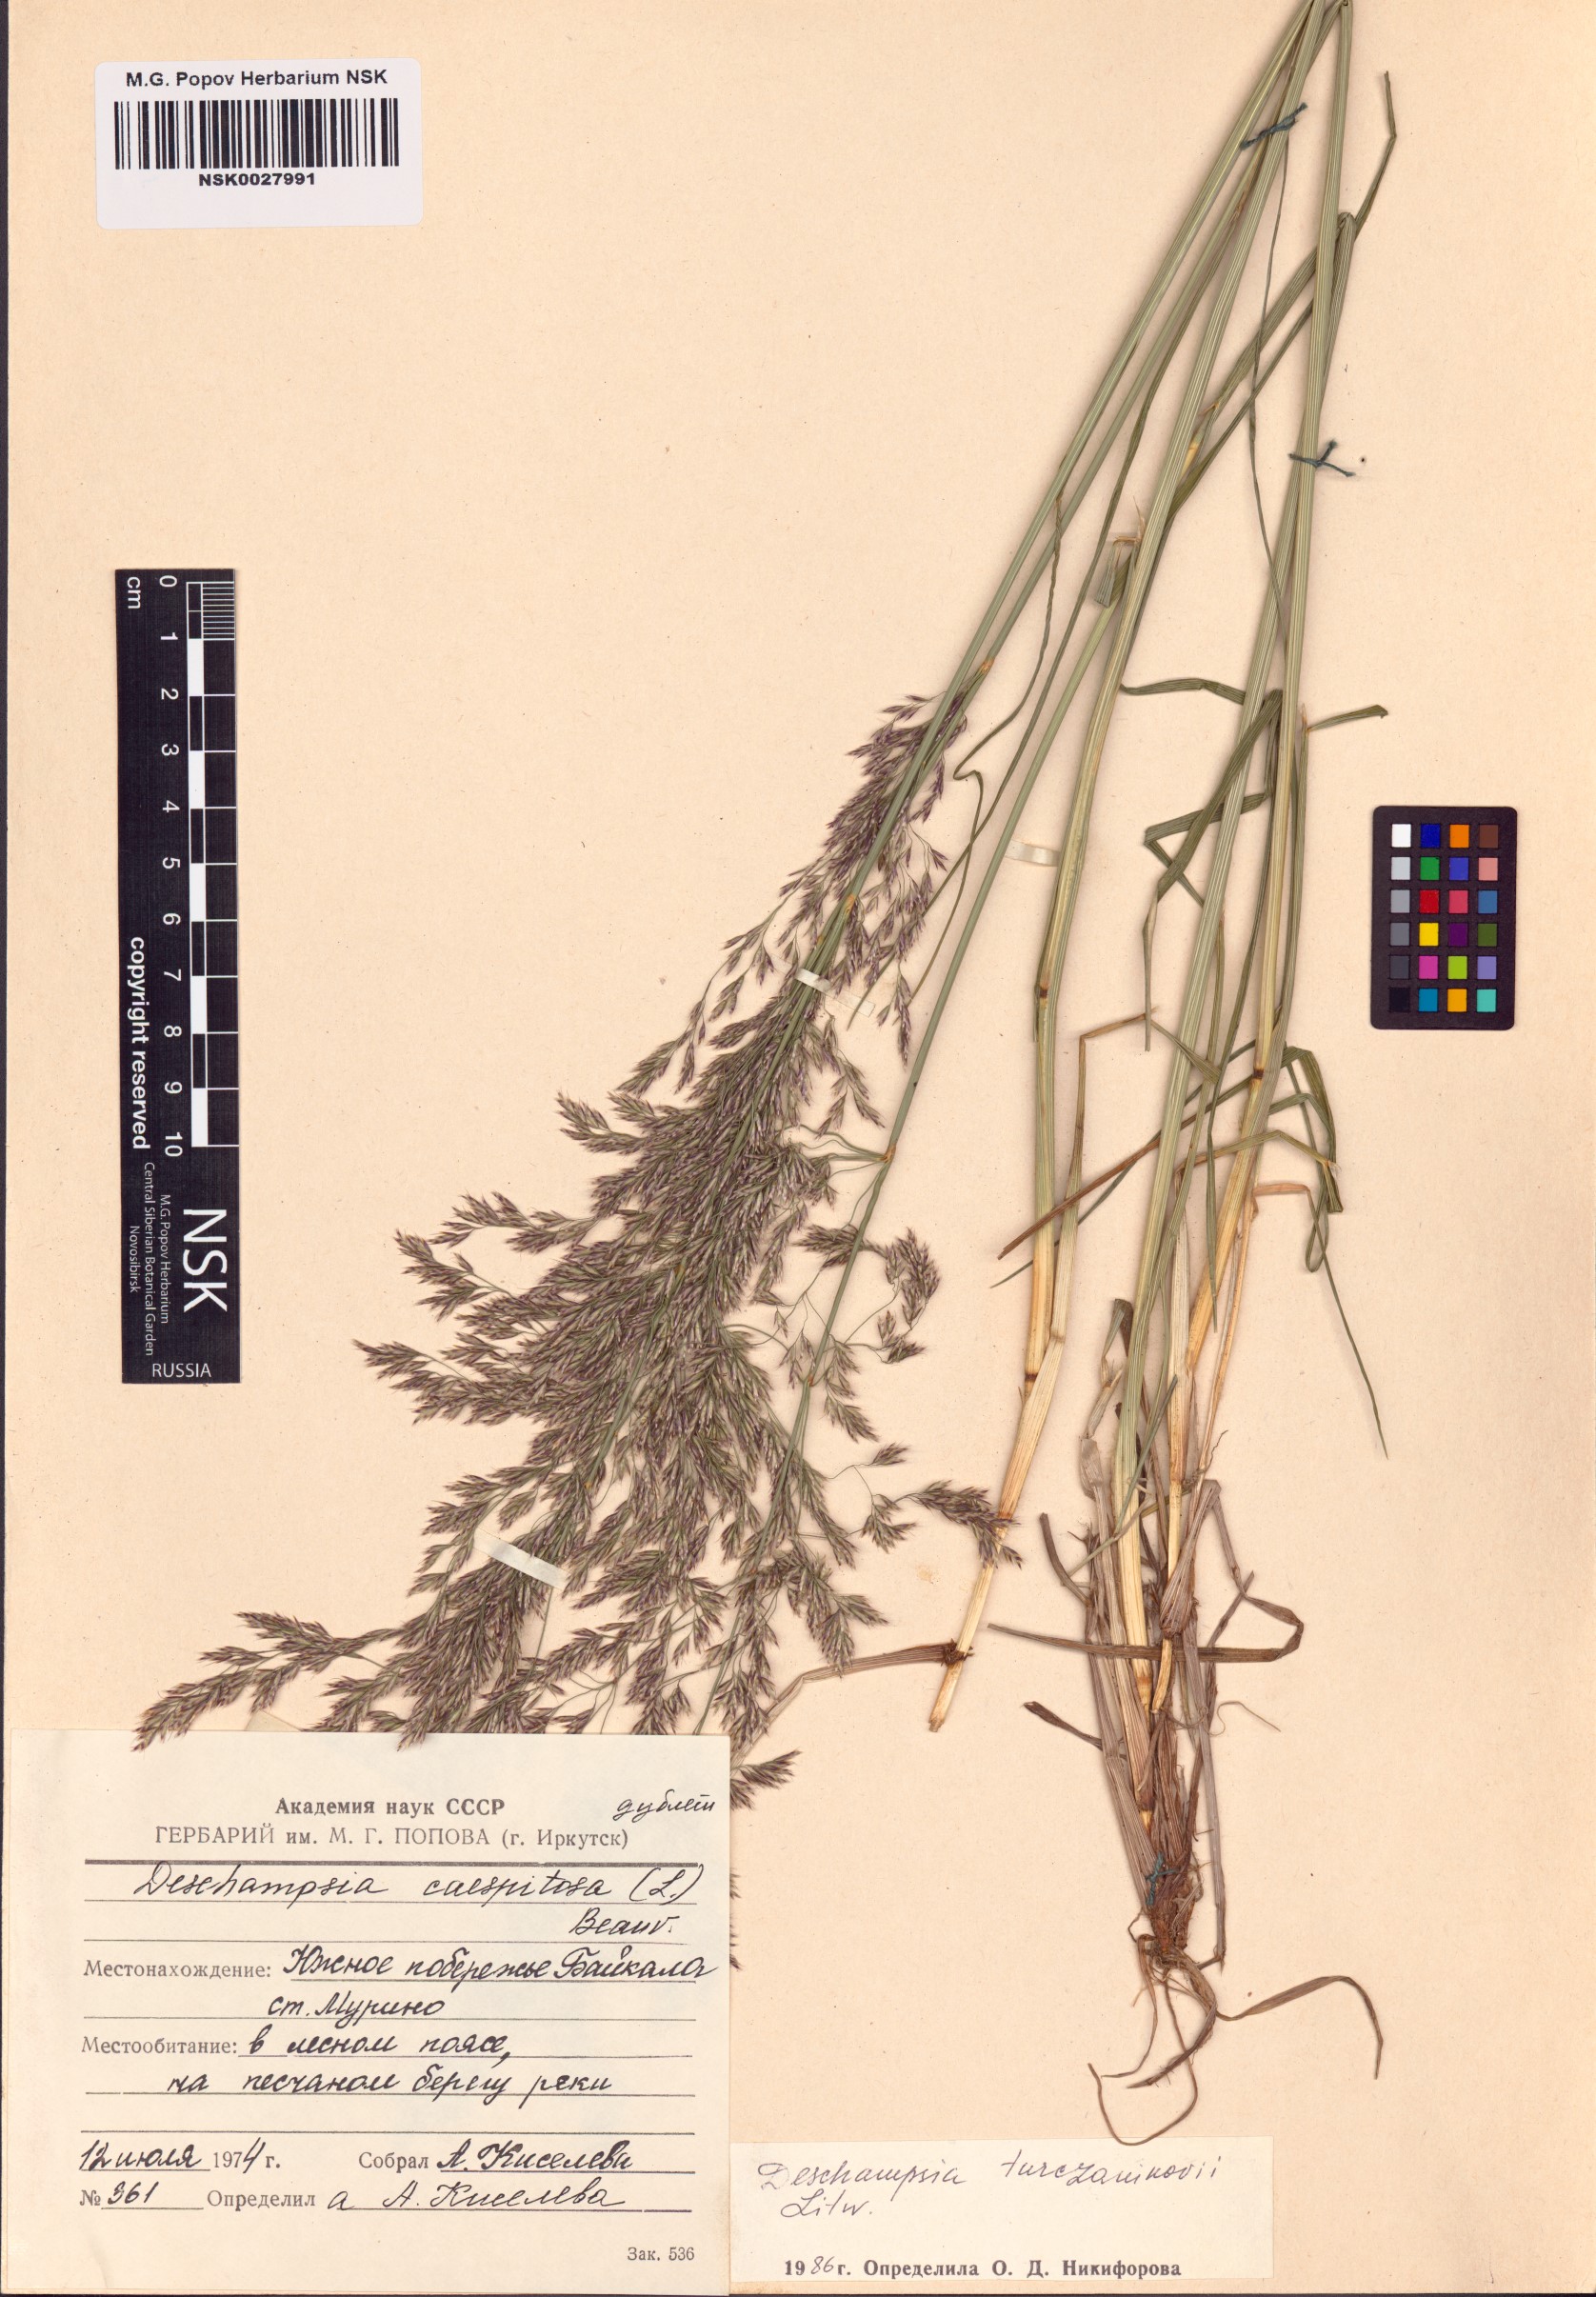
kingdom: Plantae
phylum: Tracheophyta
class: Liliopsida
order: Poales
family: Poaceae
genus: Deschampsia
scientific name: Deschampsia cespitosa
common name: Tufted hair-grass
